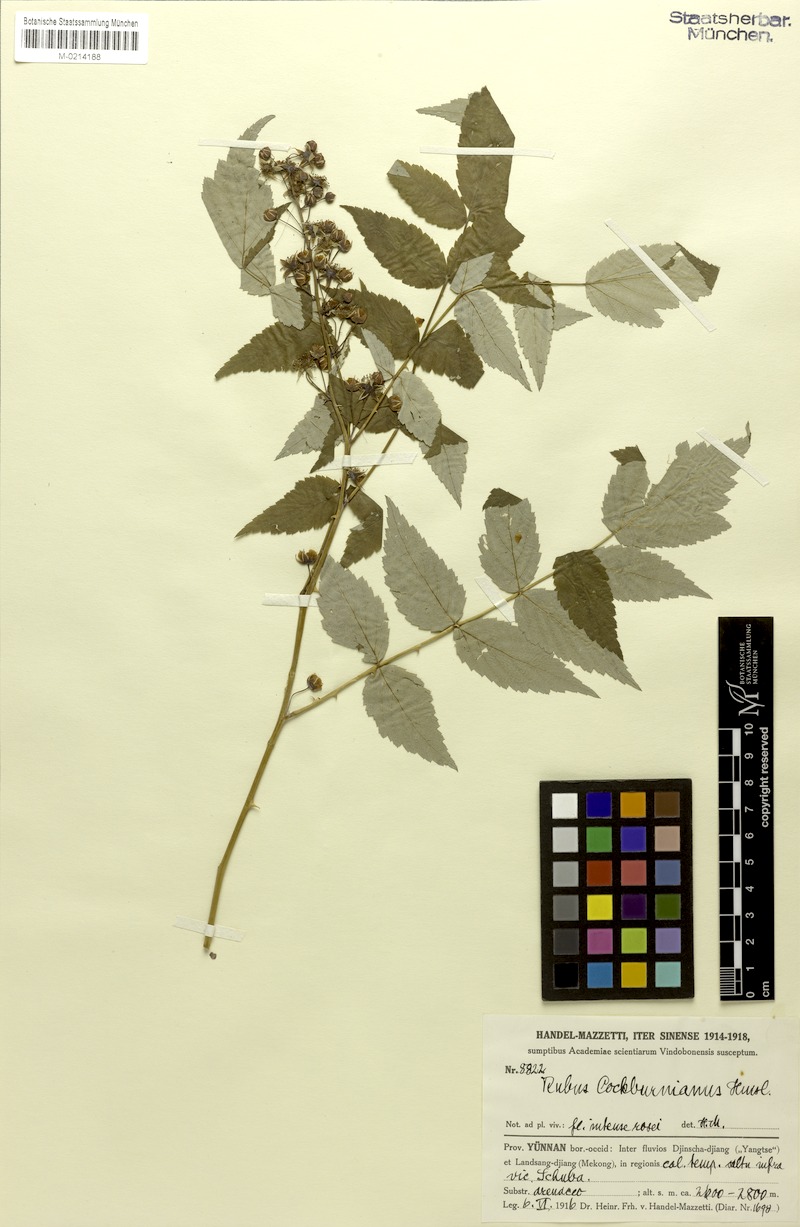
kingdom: Plantae
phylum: Tracheophyta
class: Magnoliopsida
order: Rosales
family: Rosaceae
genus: Rubus
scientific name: Rubus cockburnianus
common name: White-stemmed bramble
